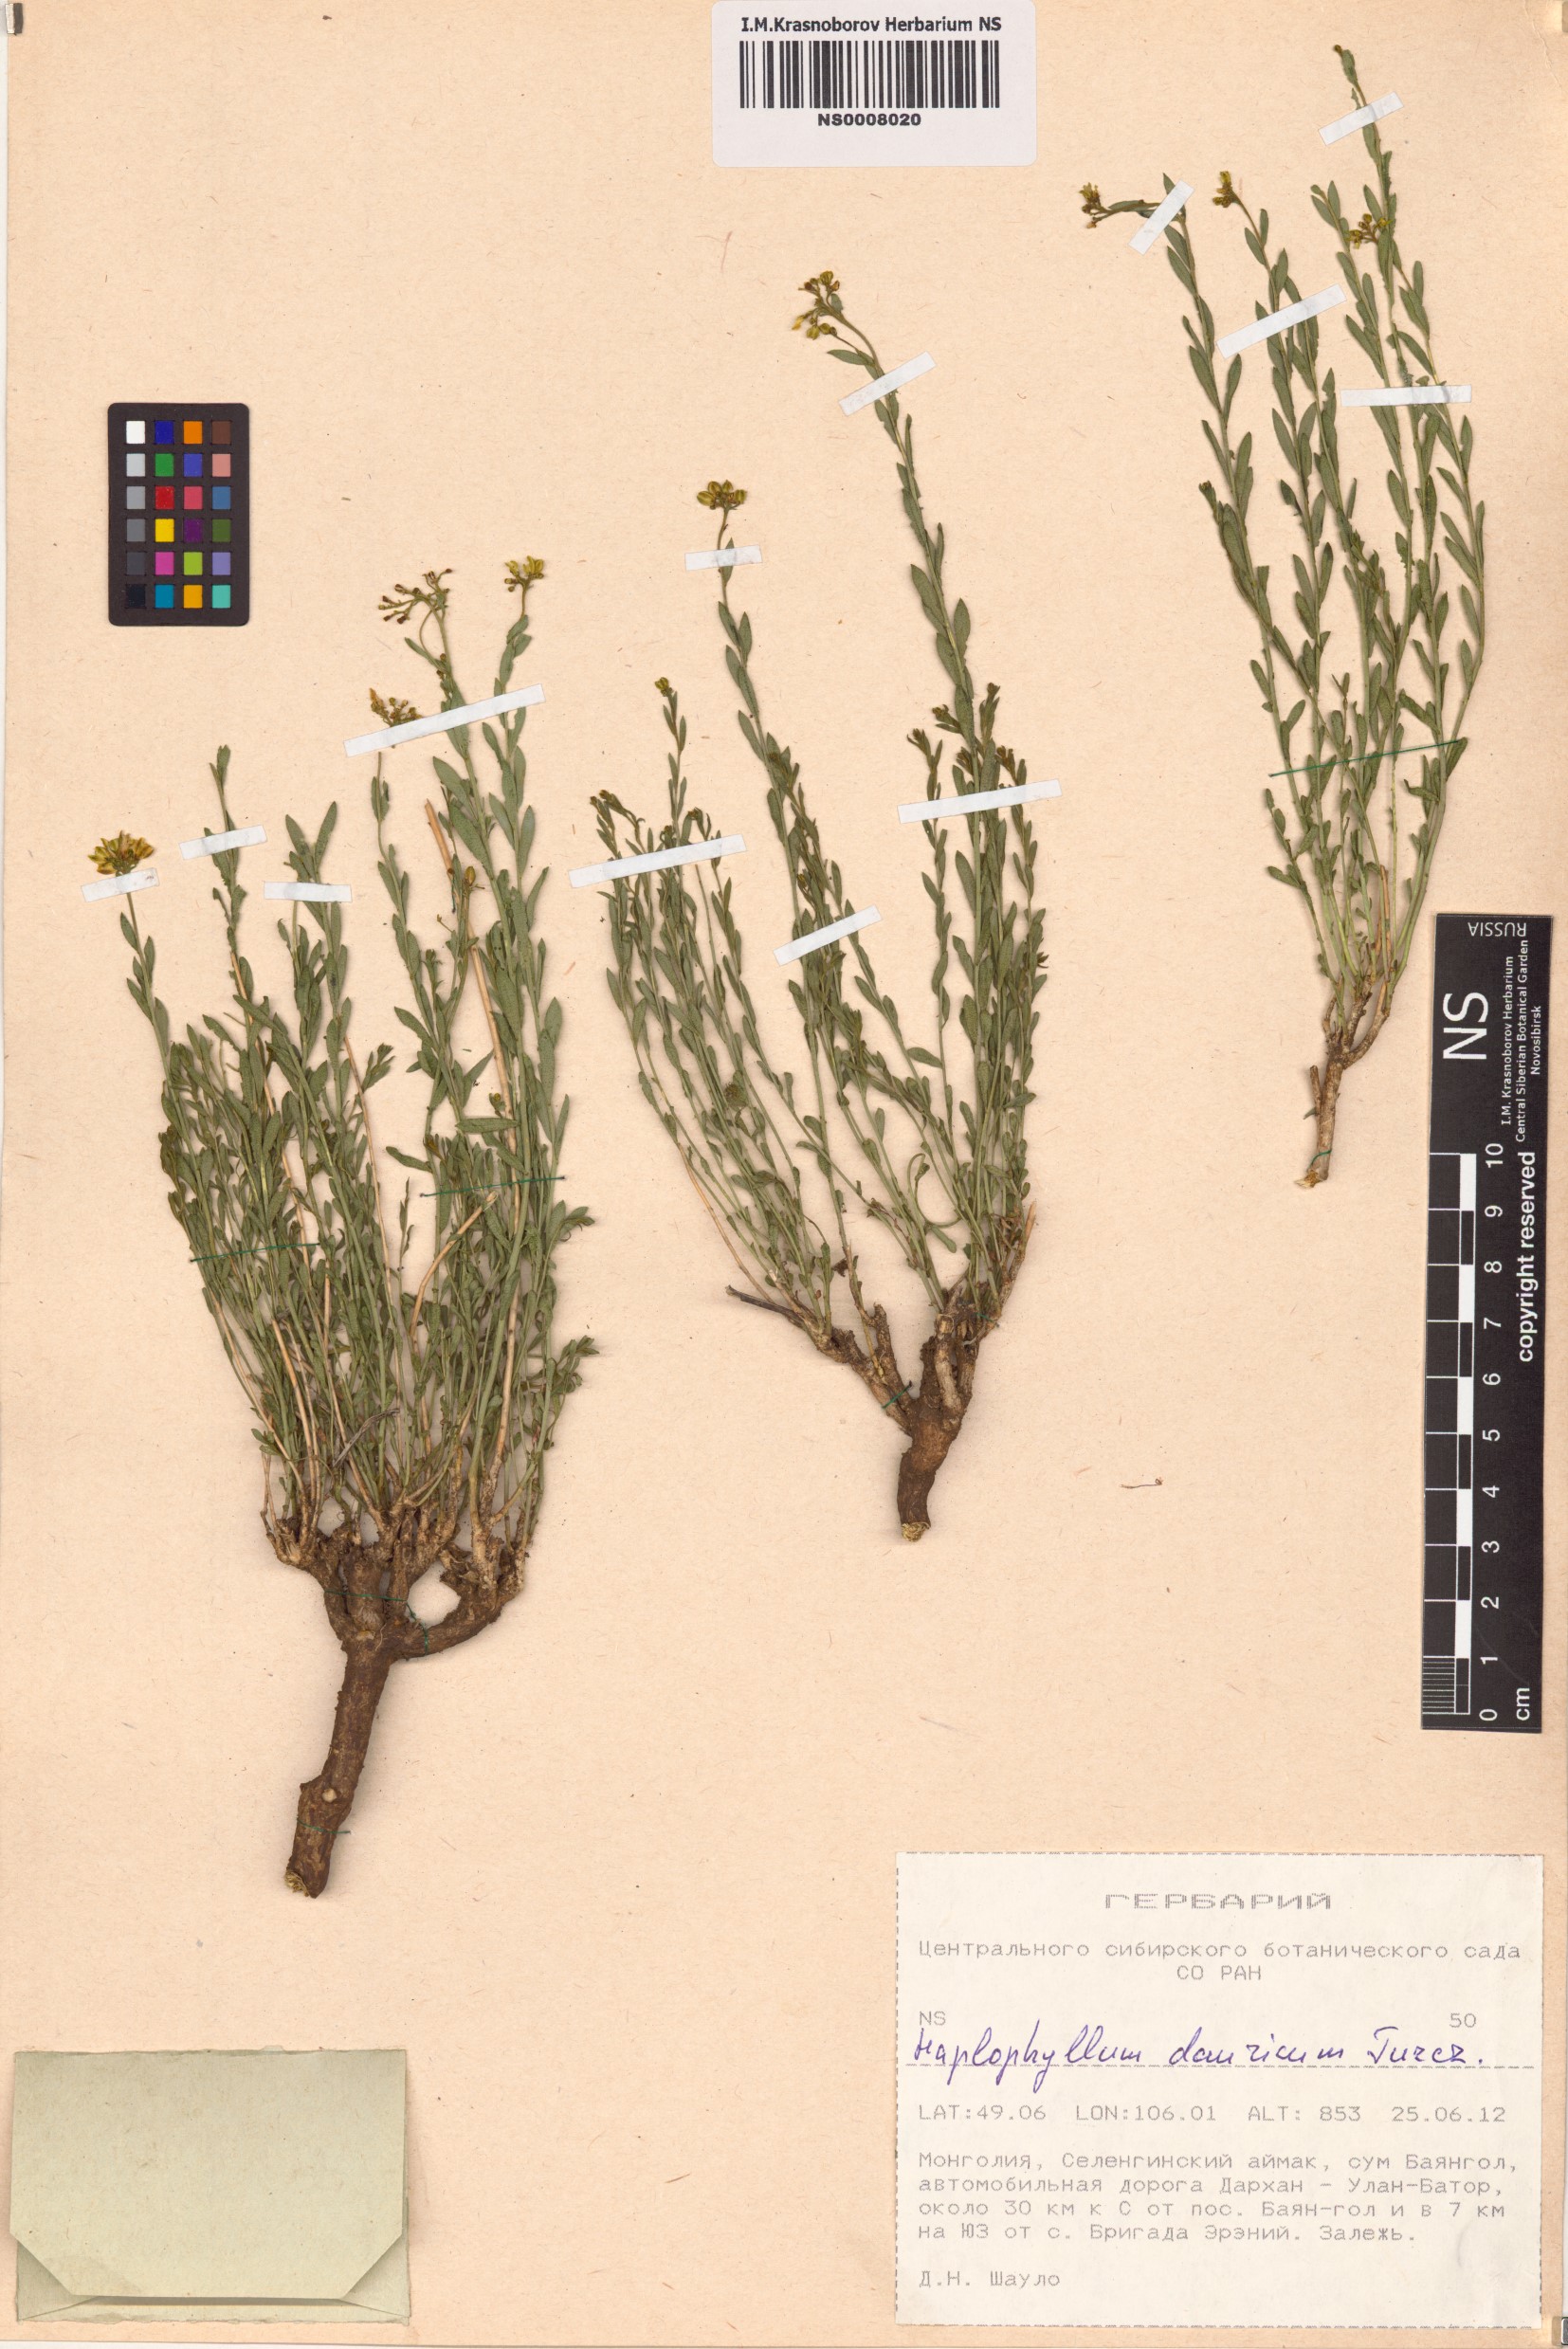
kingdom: Plantae
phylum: Tracheophyta
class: Magnoliopsida
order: Sapindales
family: Rutaceae
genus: Haplophyllum
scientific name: Haplophyllum dauricum
